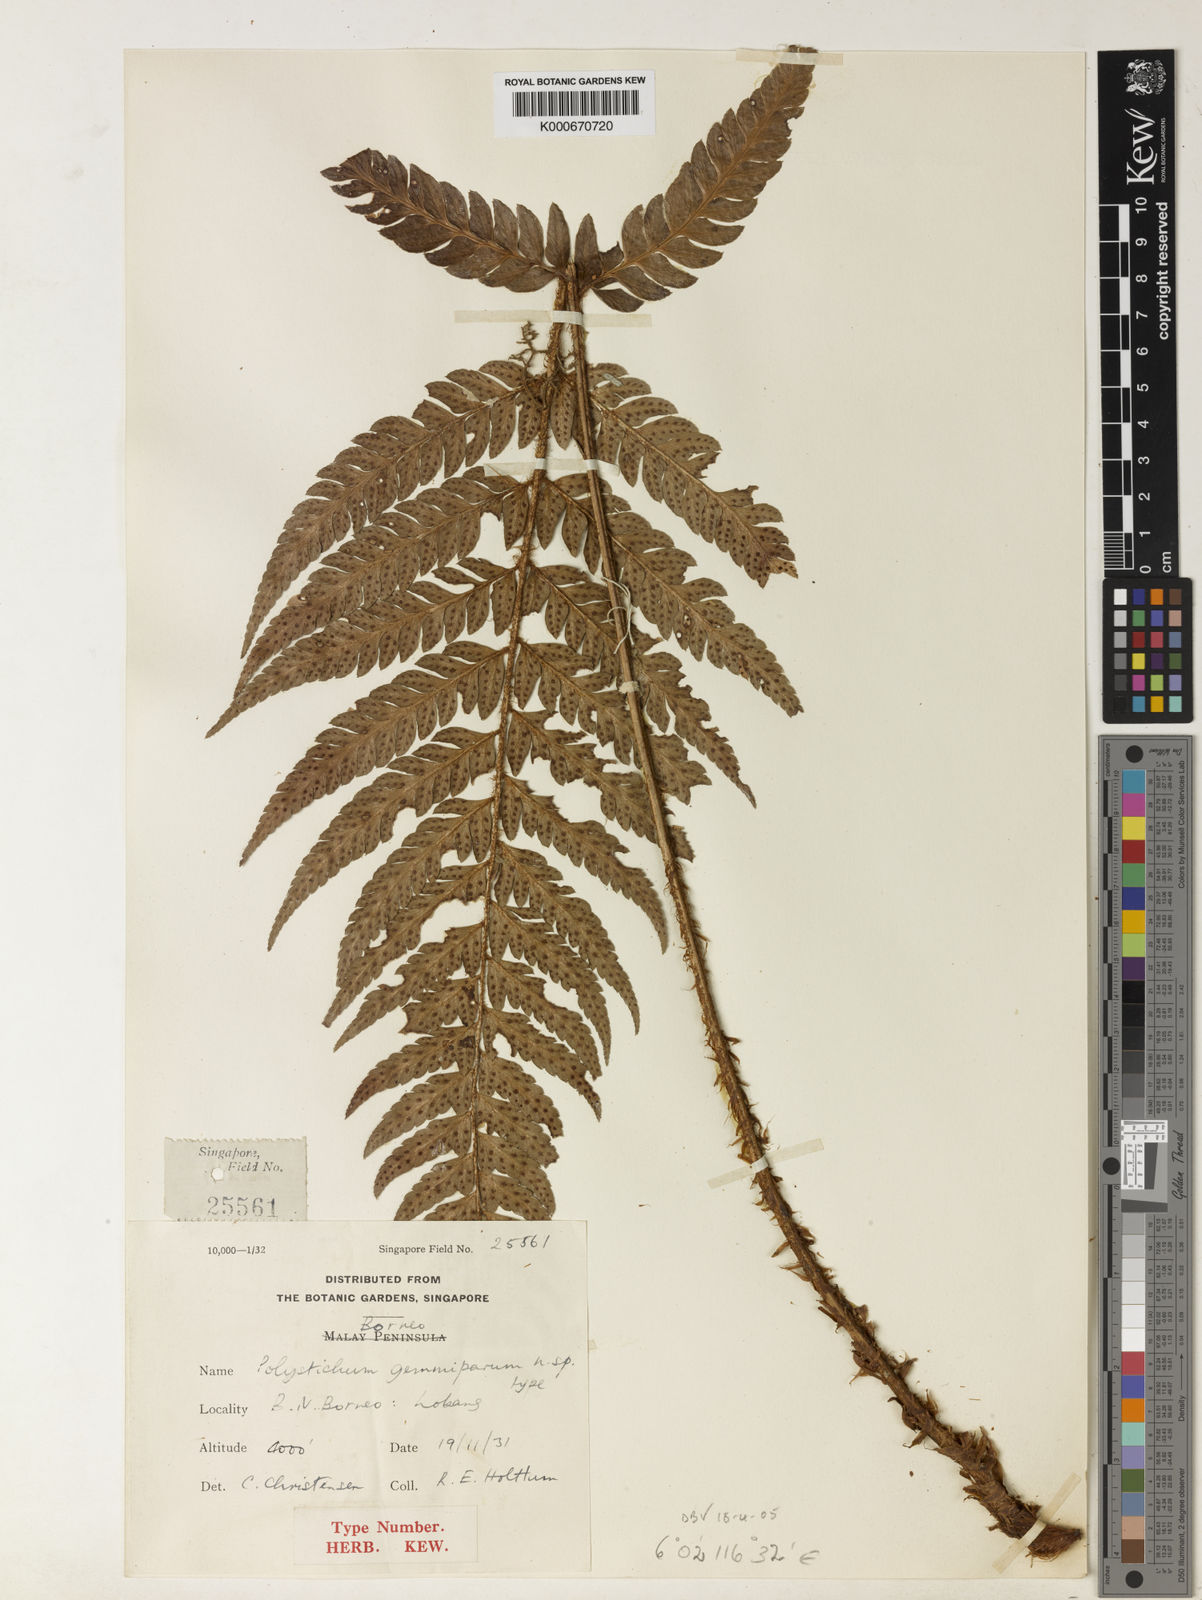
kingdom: Plantae
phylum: Tracheophyta
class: Polypodiopsida
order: Polypodiales
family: Dryopteridaceae
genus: Polystichum
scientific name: Polystichum scariosum
